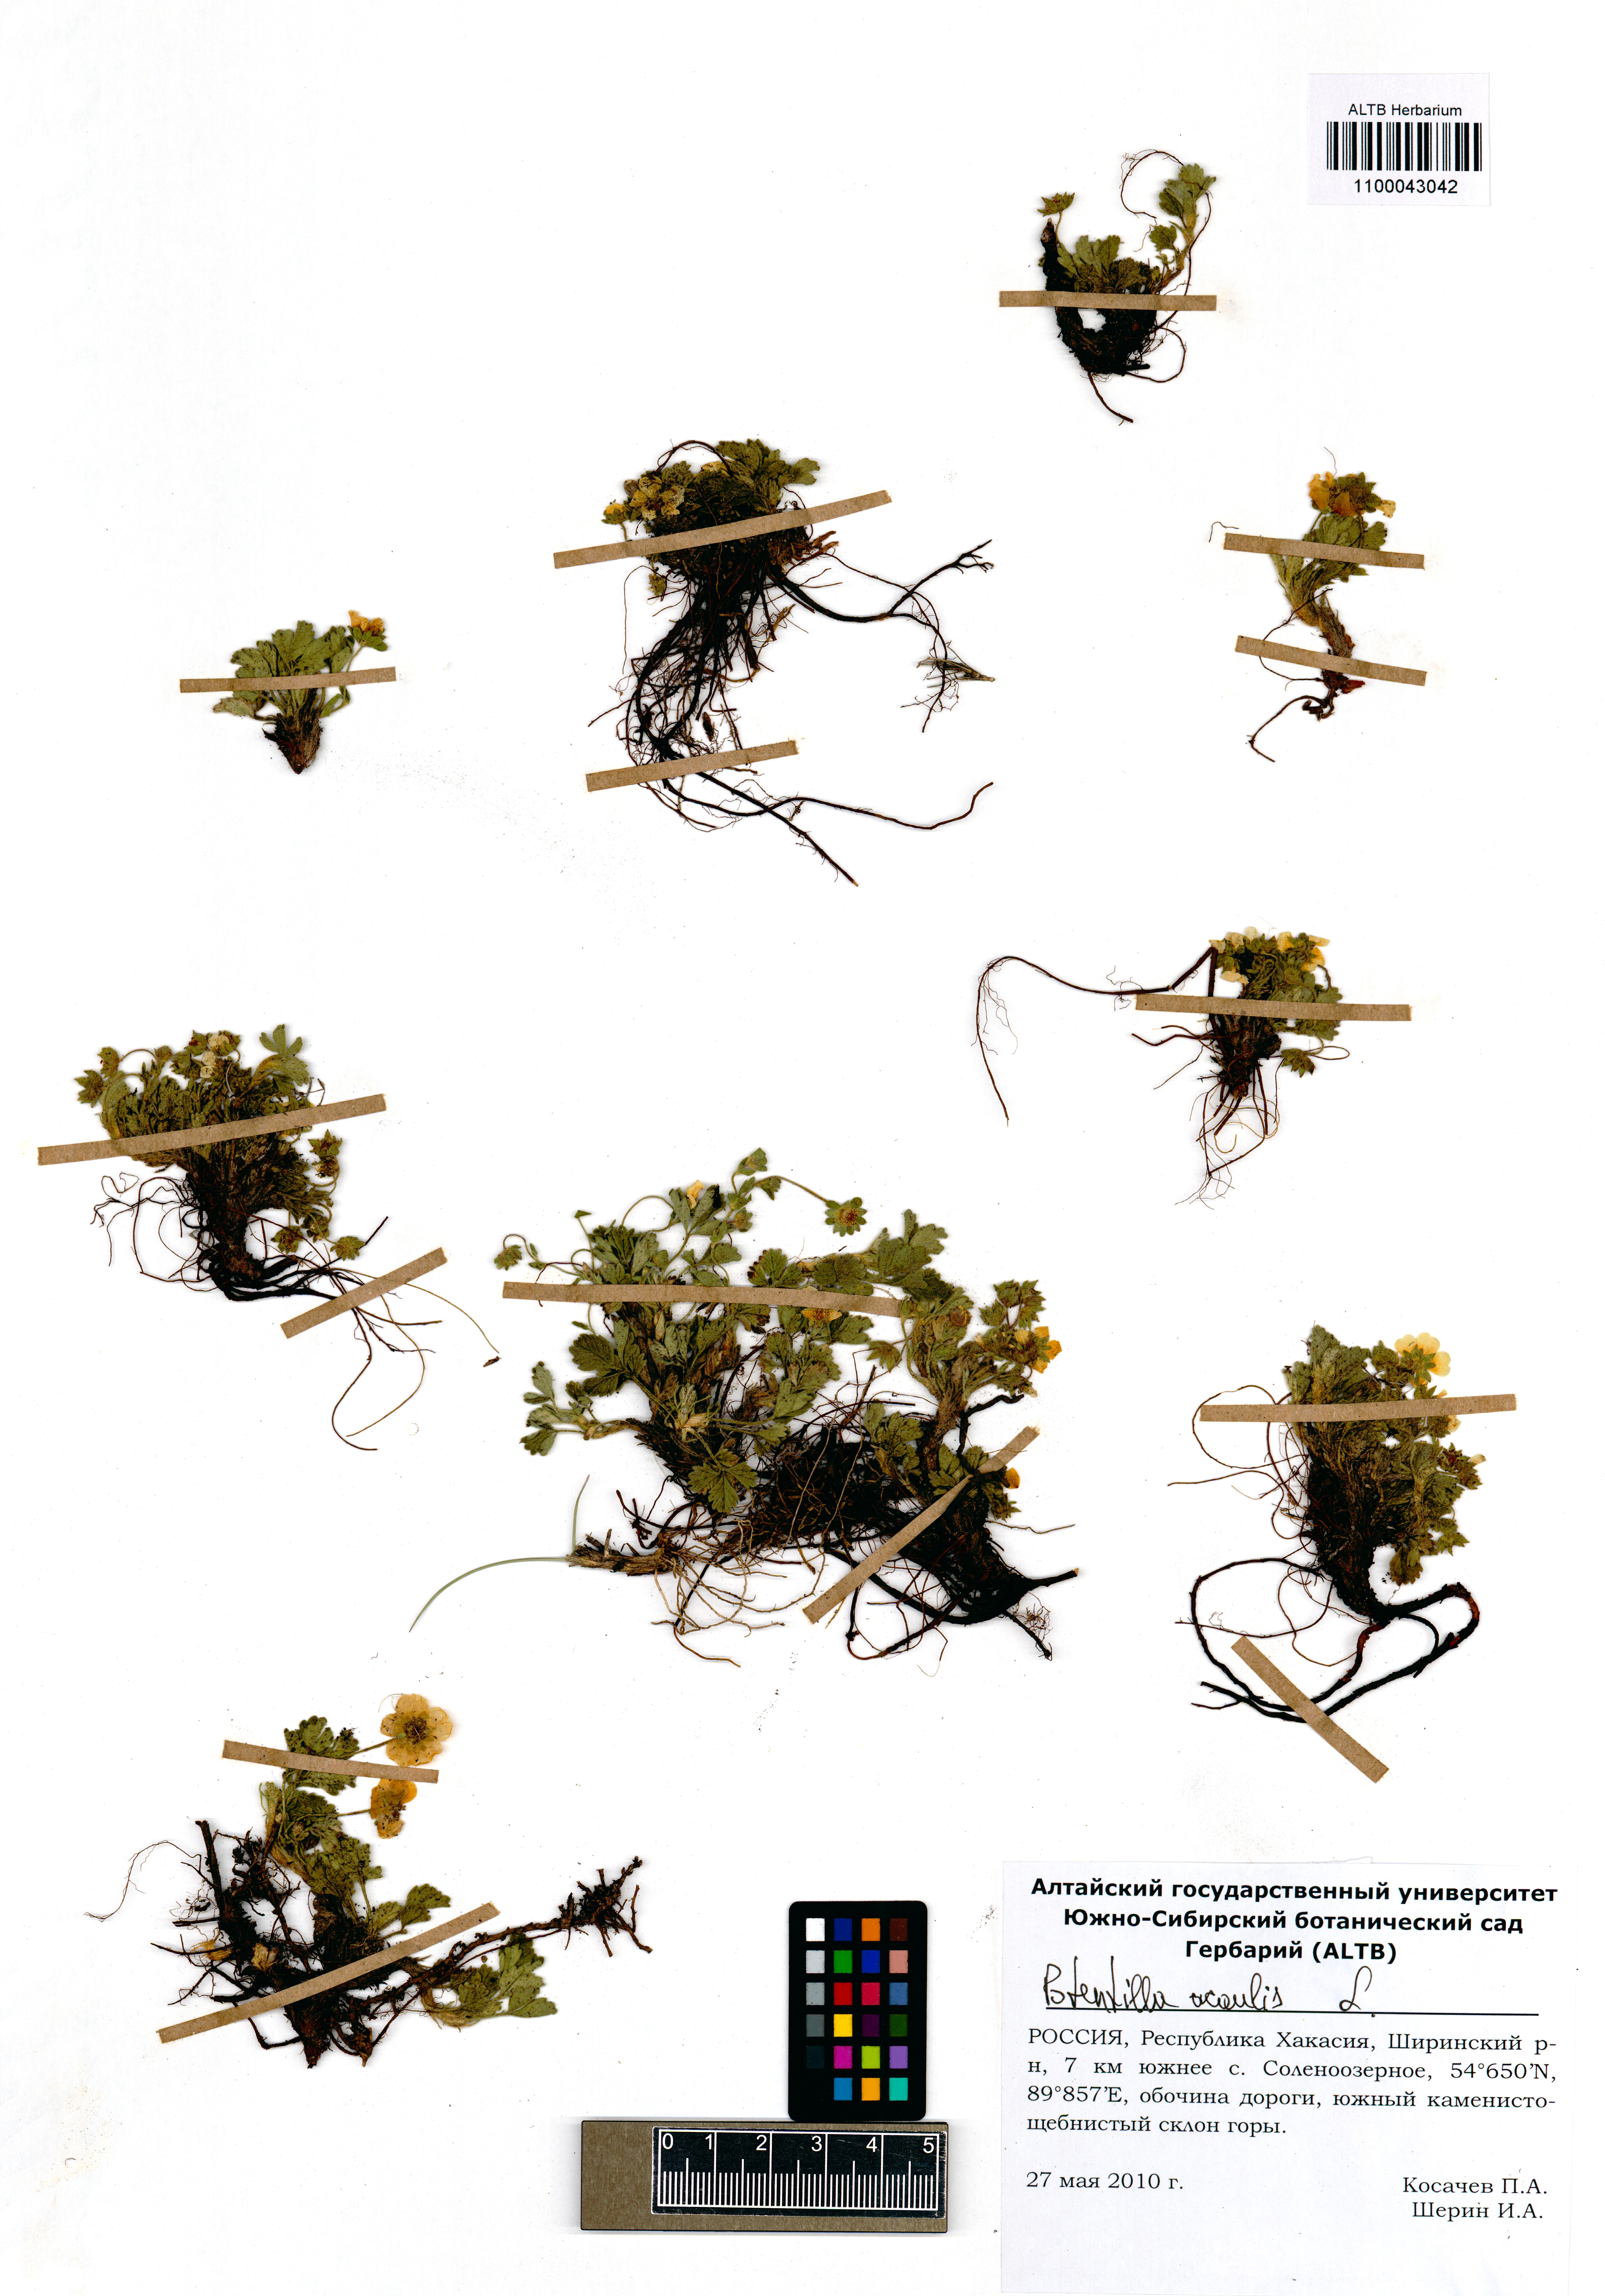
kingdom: Plantae
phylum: Tracheophyta
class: Magnoliopsida
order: Rosales
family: Rosaceae
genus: Potentilla
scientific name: Potentilla acaulis
